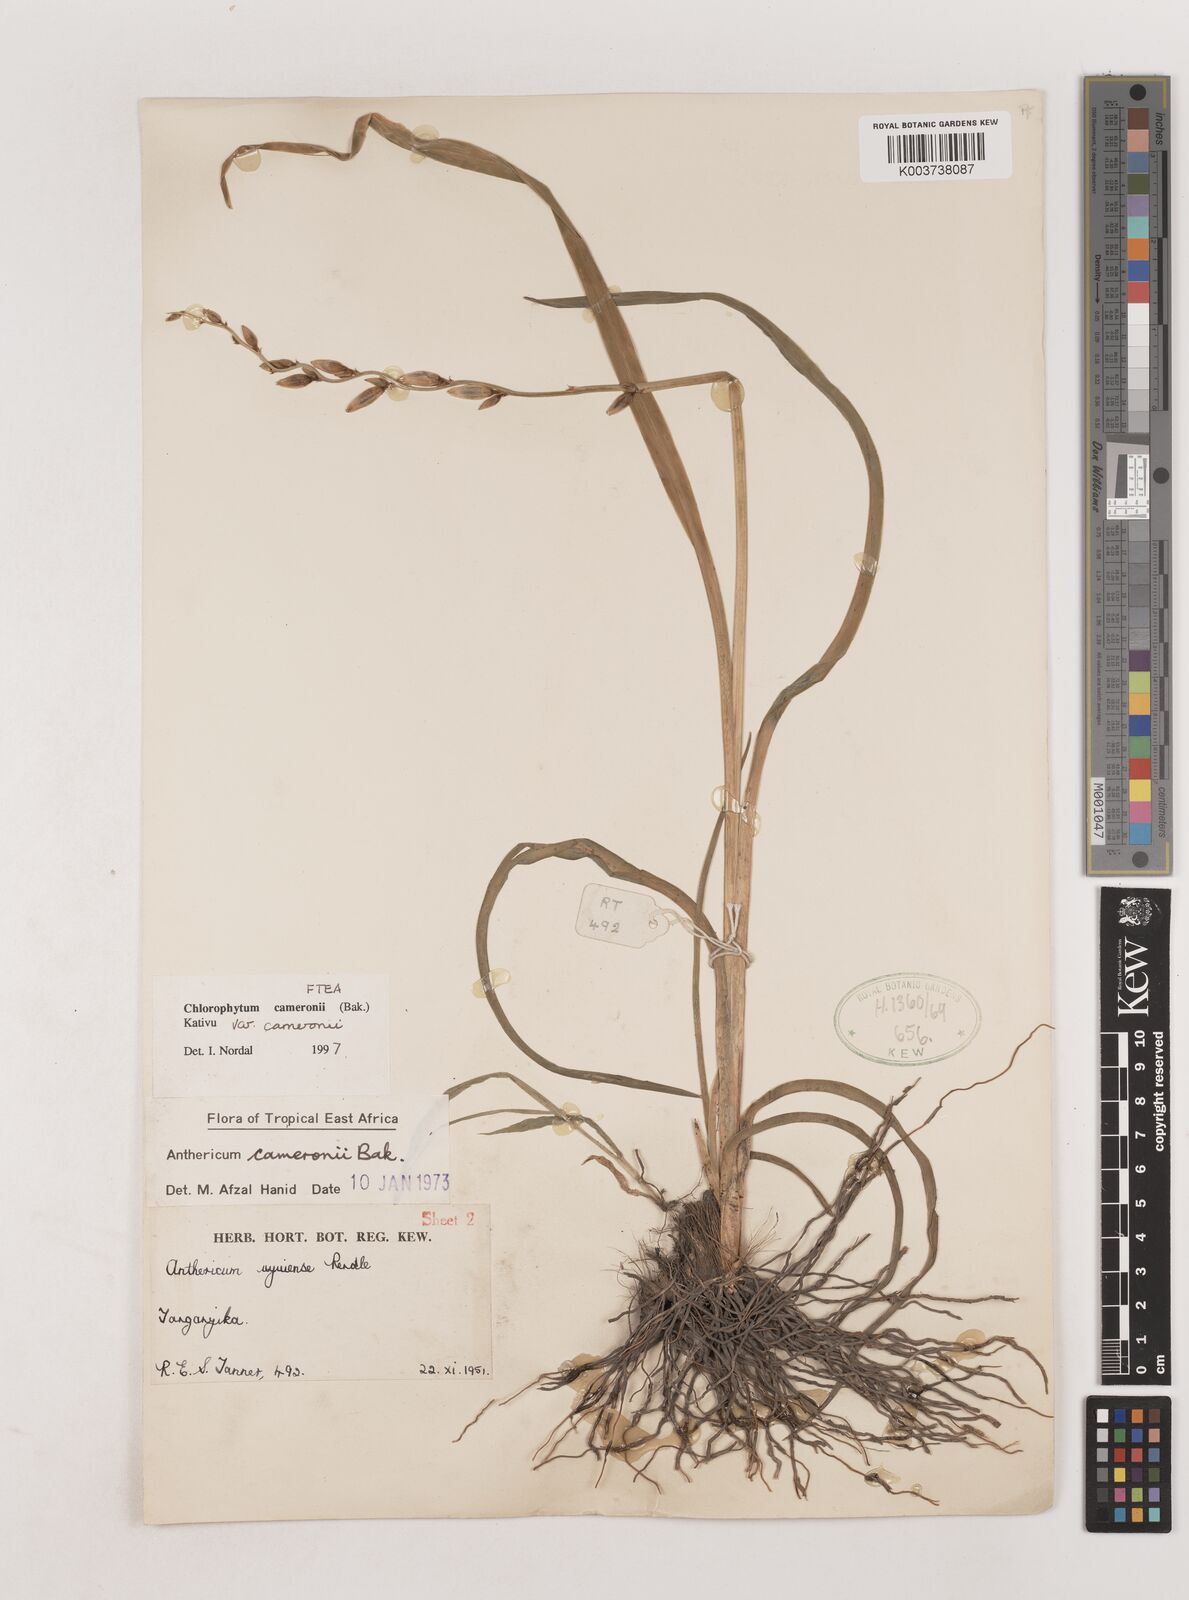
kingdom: Plantae
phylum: Tracheophyta
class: Liliopsida
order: Asparagales
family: Asparagaceae
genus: Chlorophytum
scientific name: Chlorophytum cameronii
